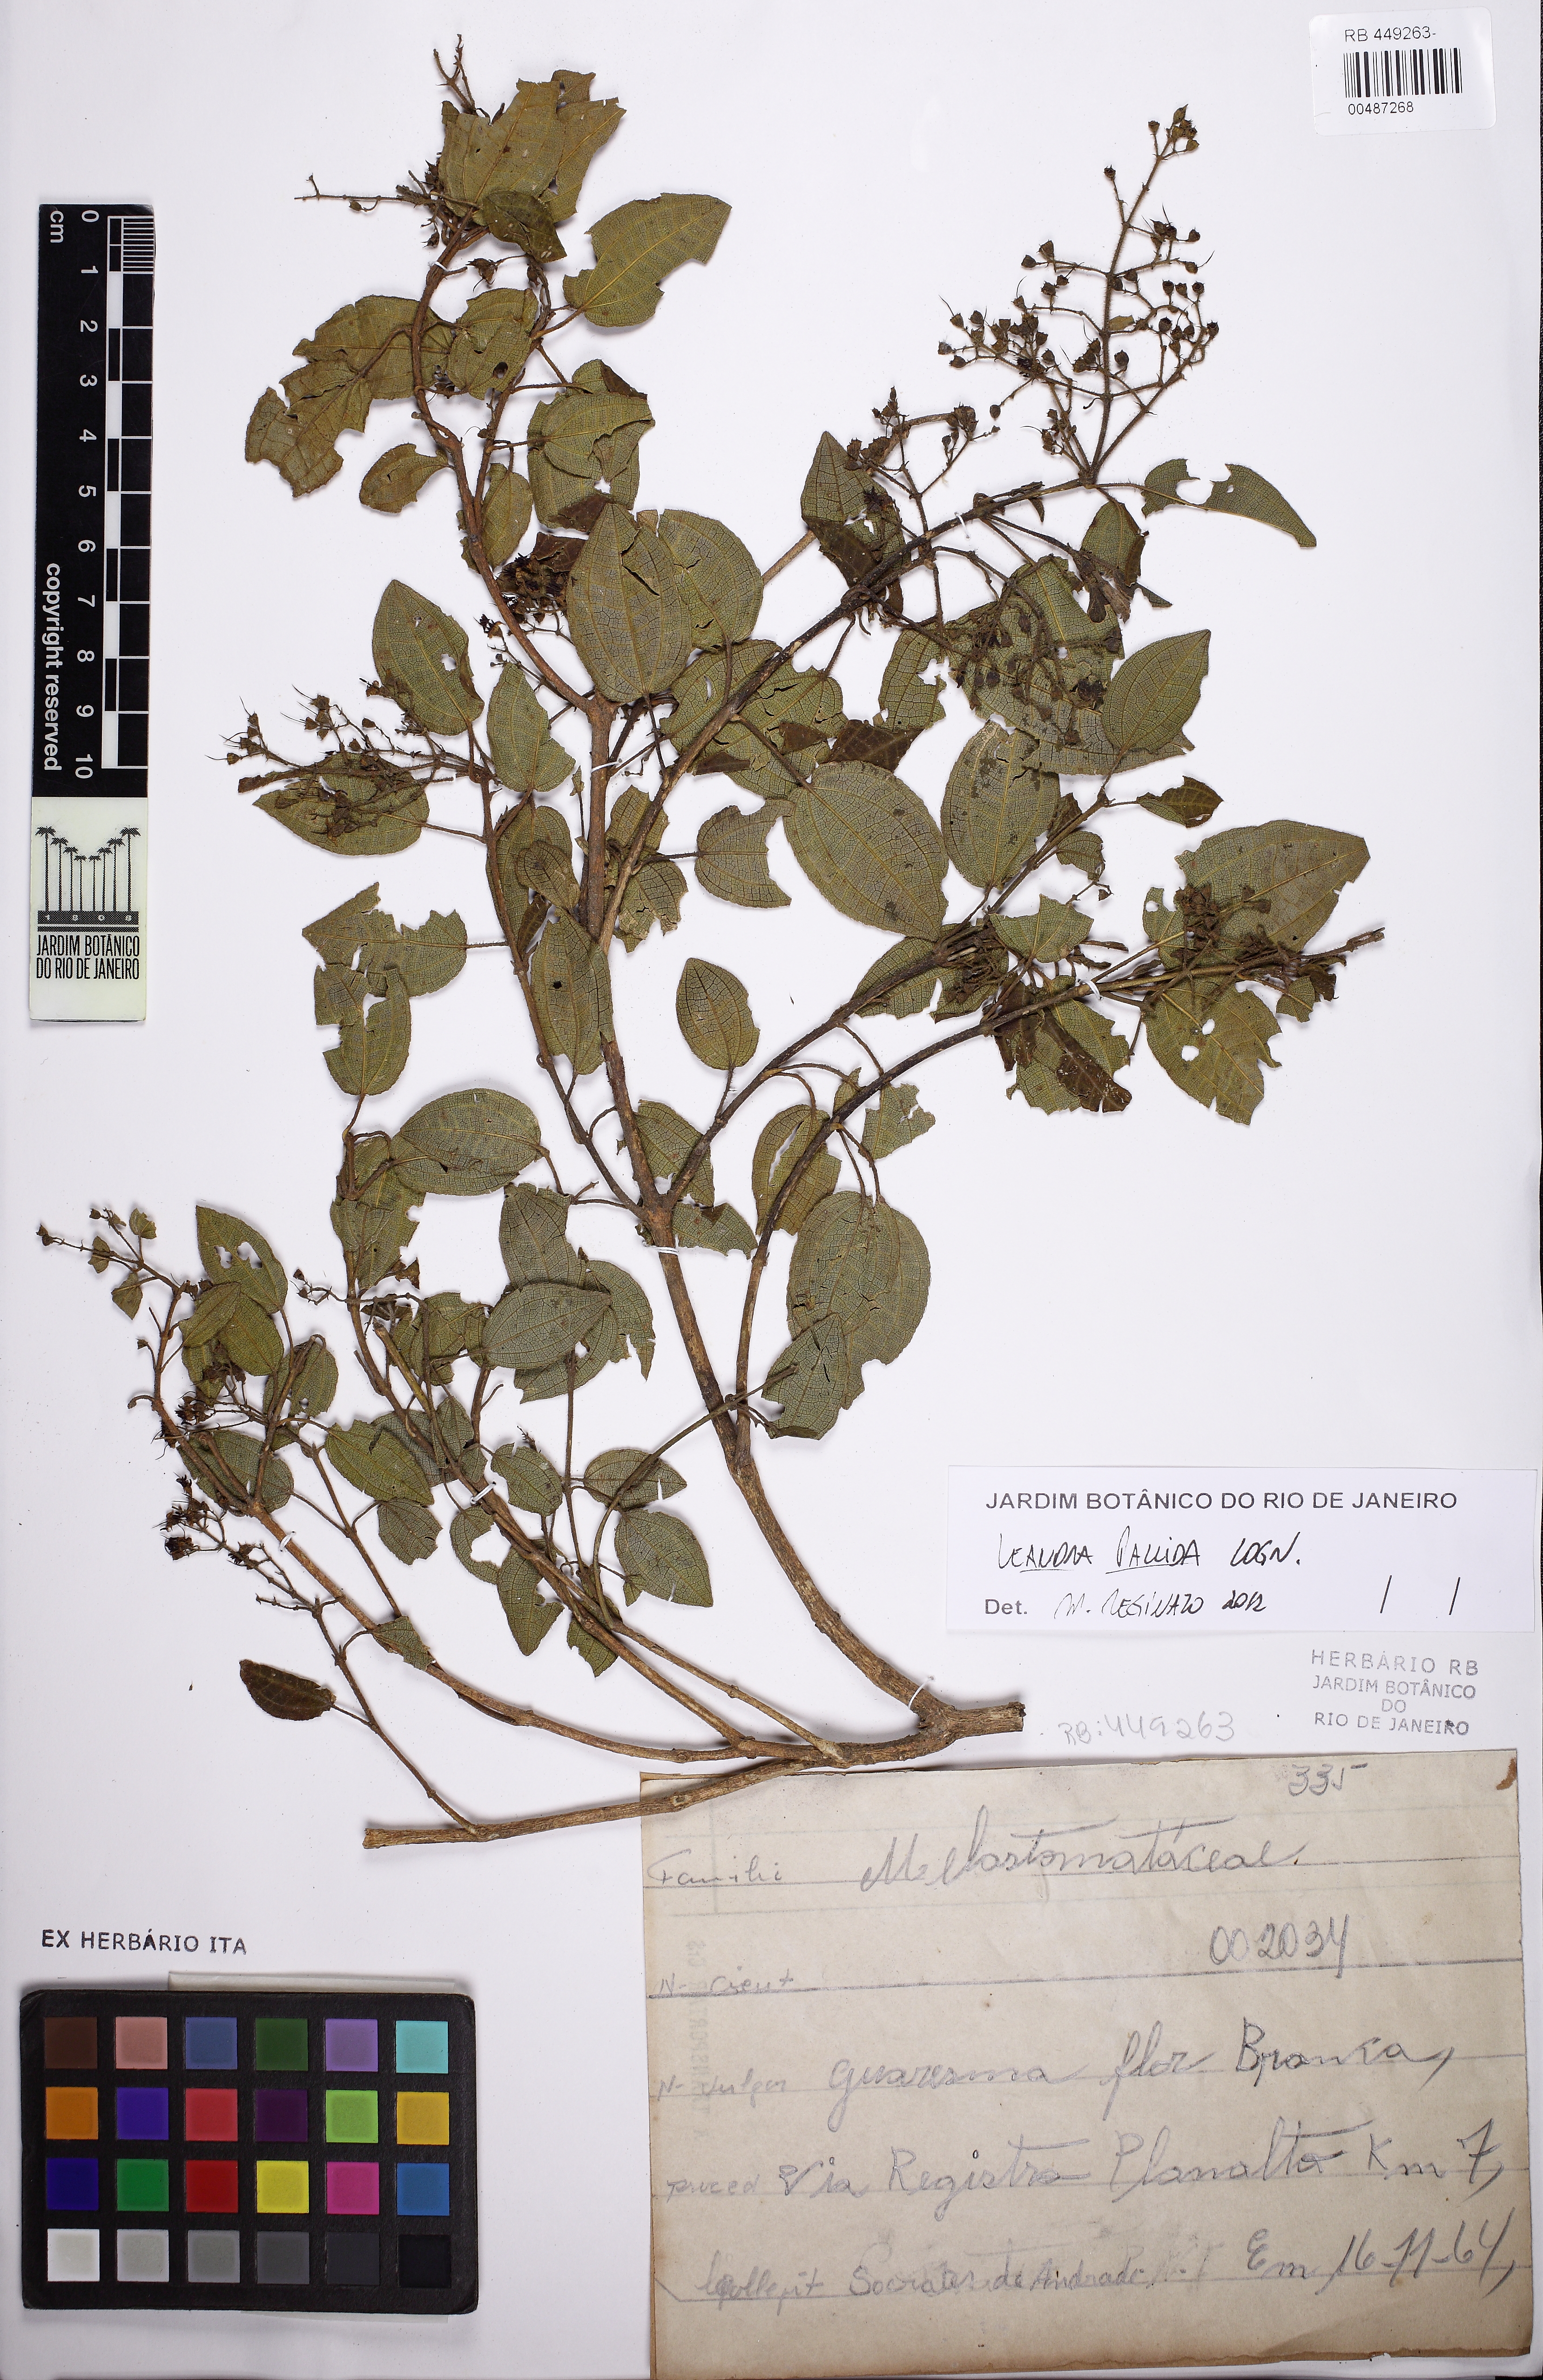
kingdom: Plantae
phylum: Tracheophyta
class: Magnoliopsida
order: Myrtales
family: Melastomataceae
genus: Miconia
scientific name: Miconia leapallida
